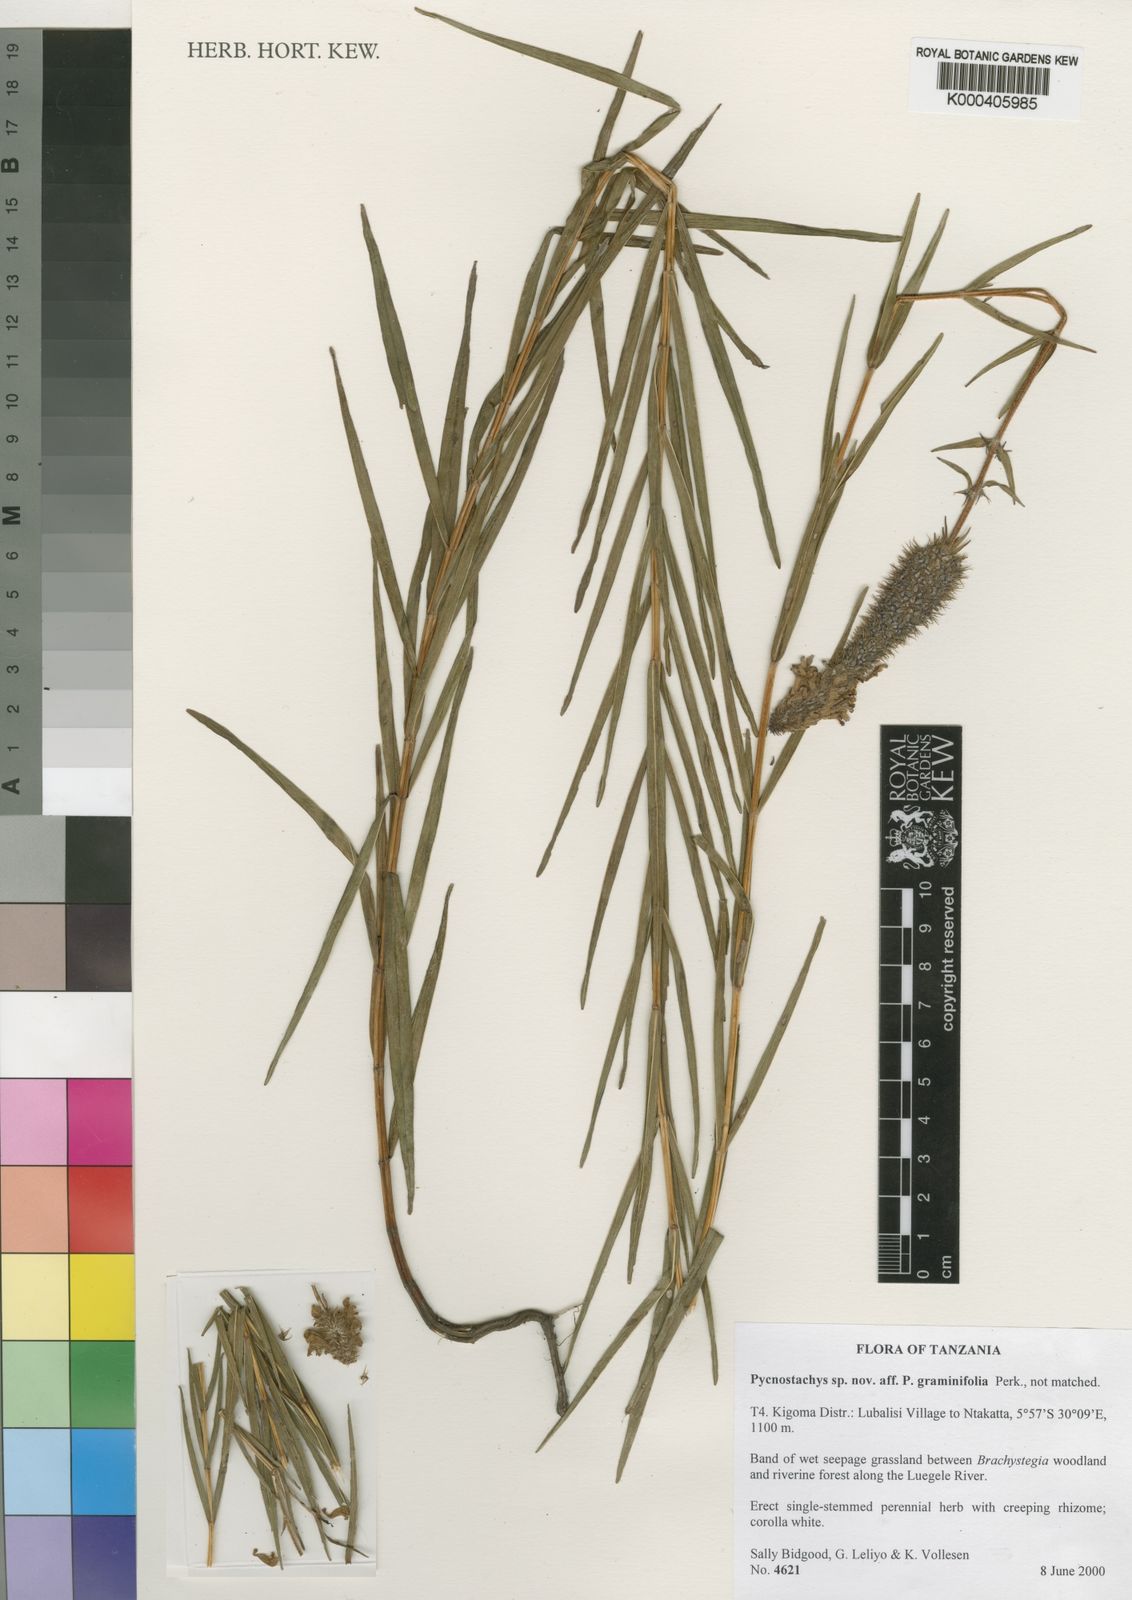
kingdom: Plantae
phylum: Tracheophyta
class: Magnoliopsida
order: Lamiales
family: Lamiaceae
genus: Coleus
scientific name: Coleus lancifolius
